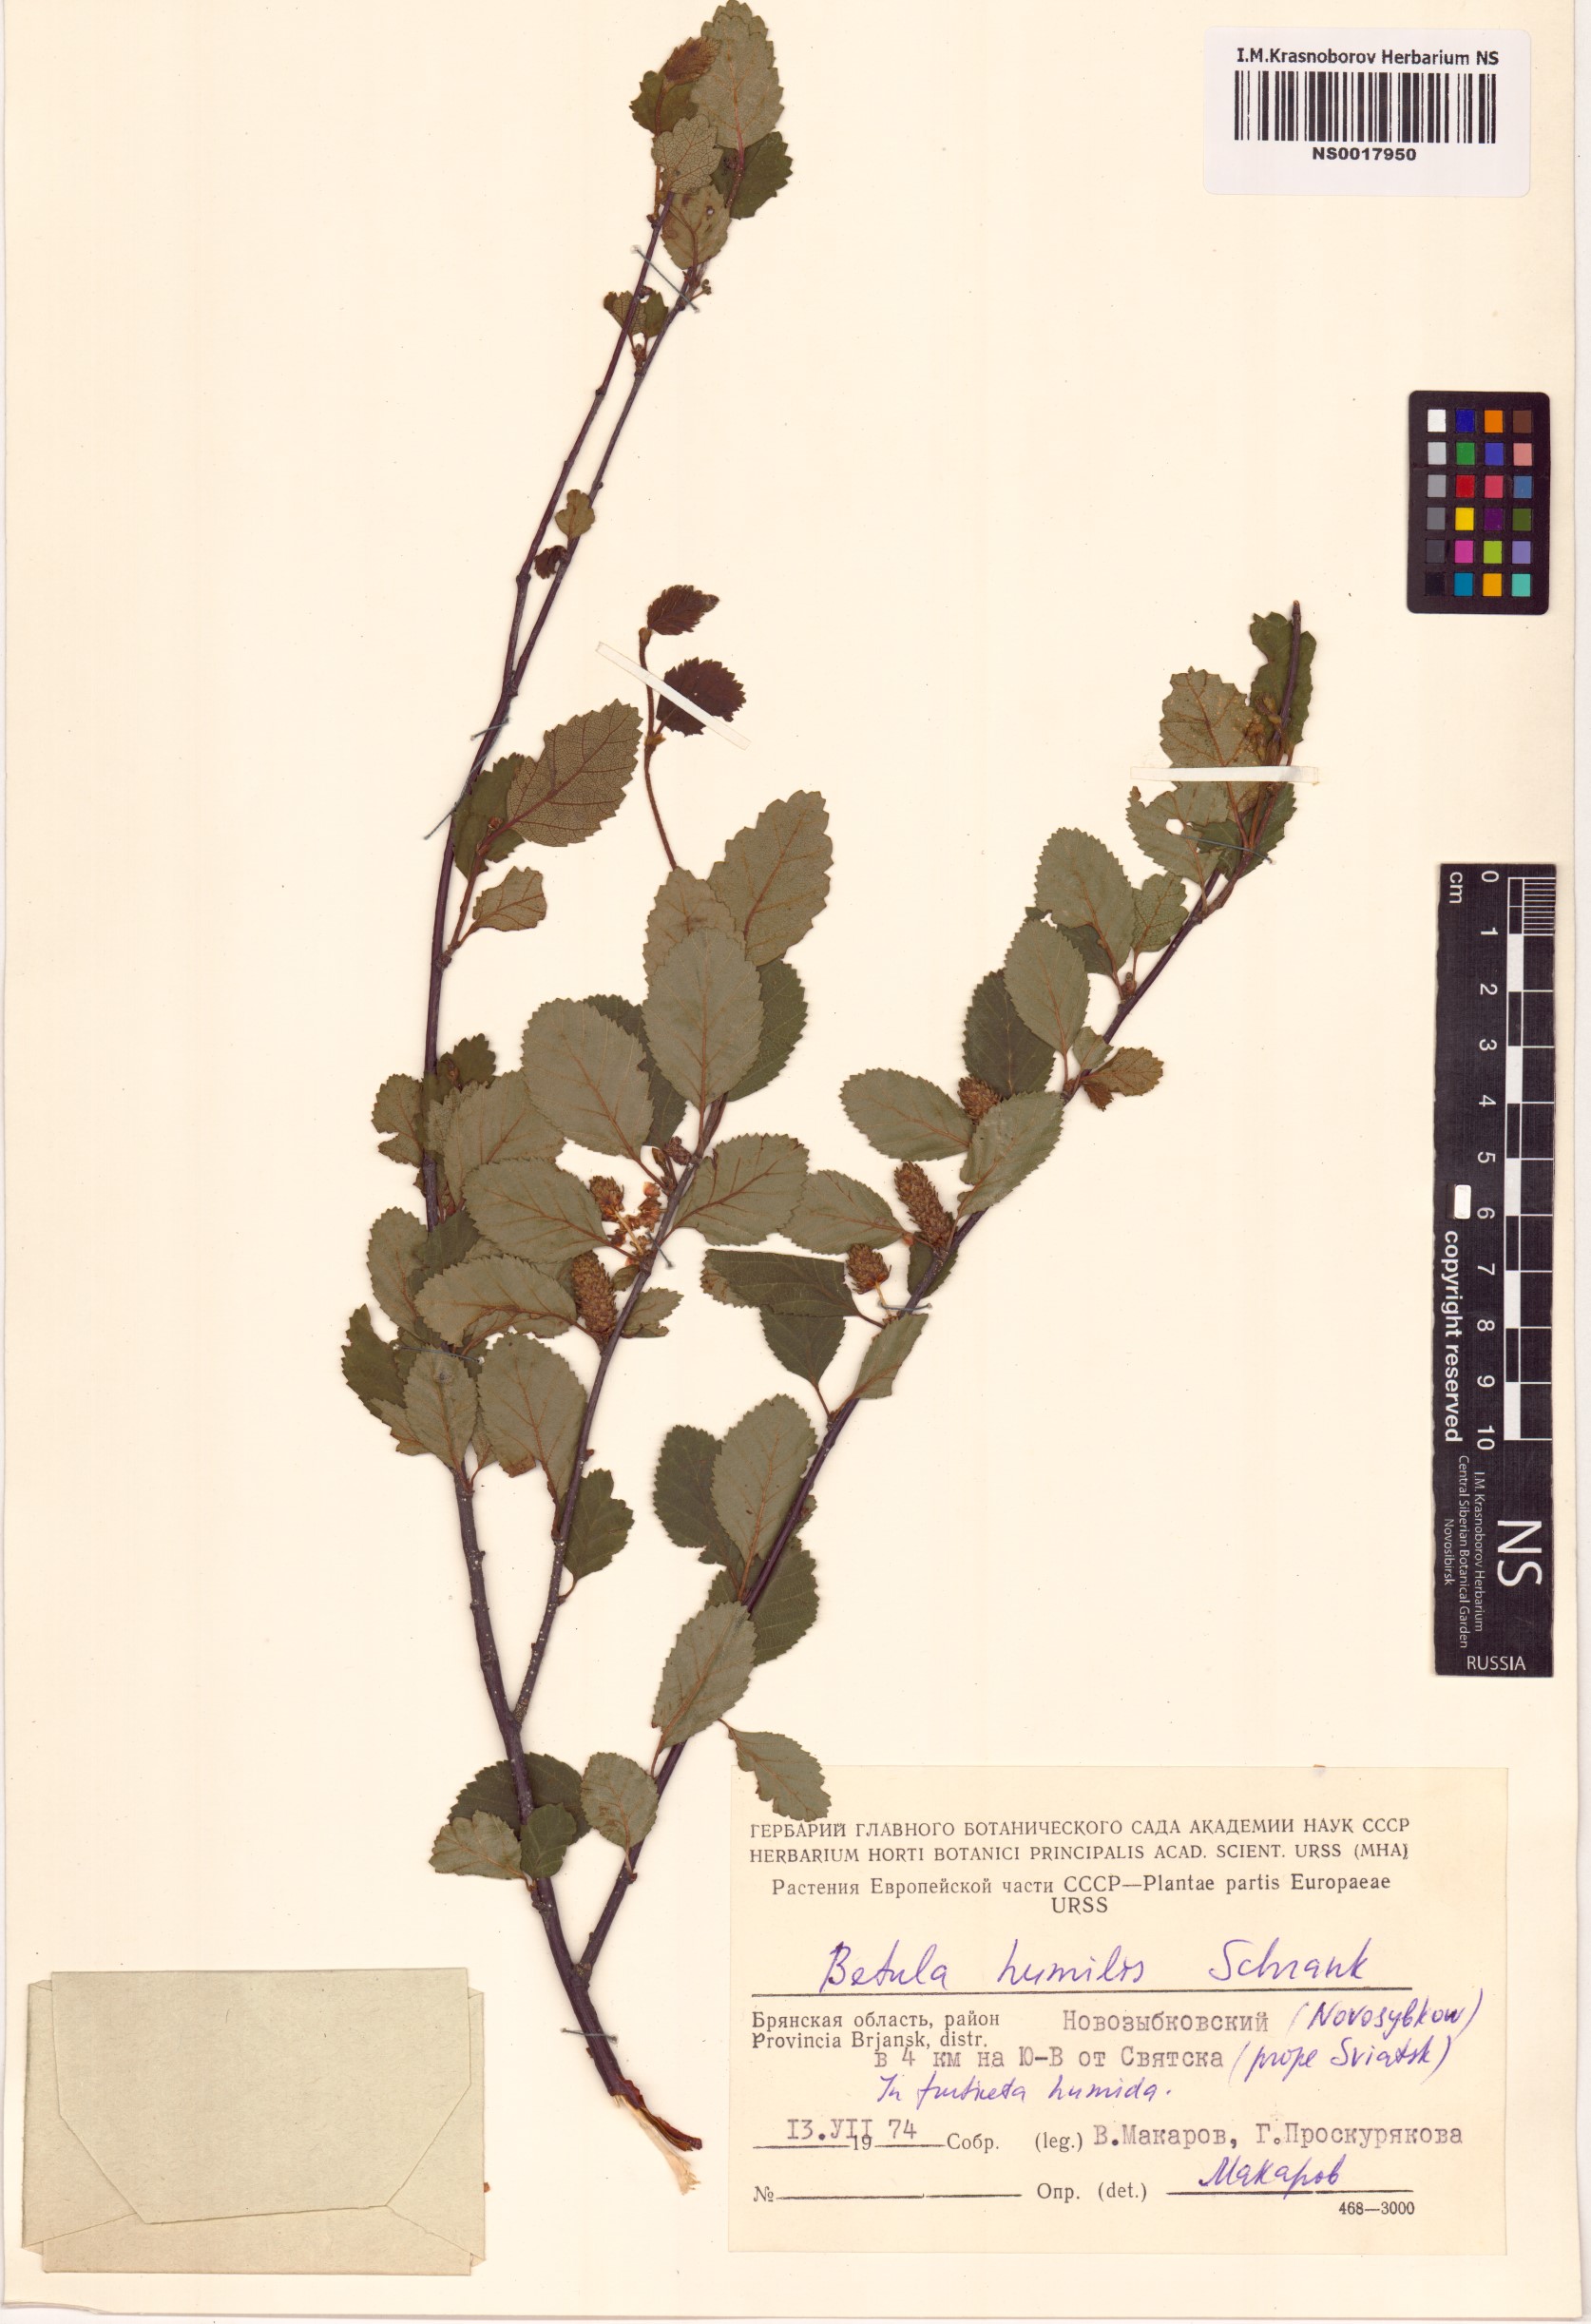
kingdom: Plantae
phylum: Tracheophyta
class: Magnoliopsida
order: Fagales
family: Betulaceae
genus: Betula
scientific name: Betula humilis
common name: Shrubby birch
